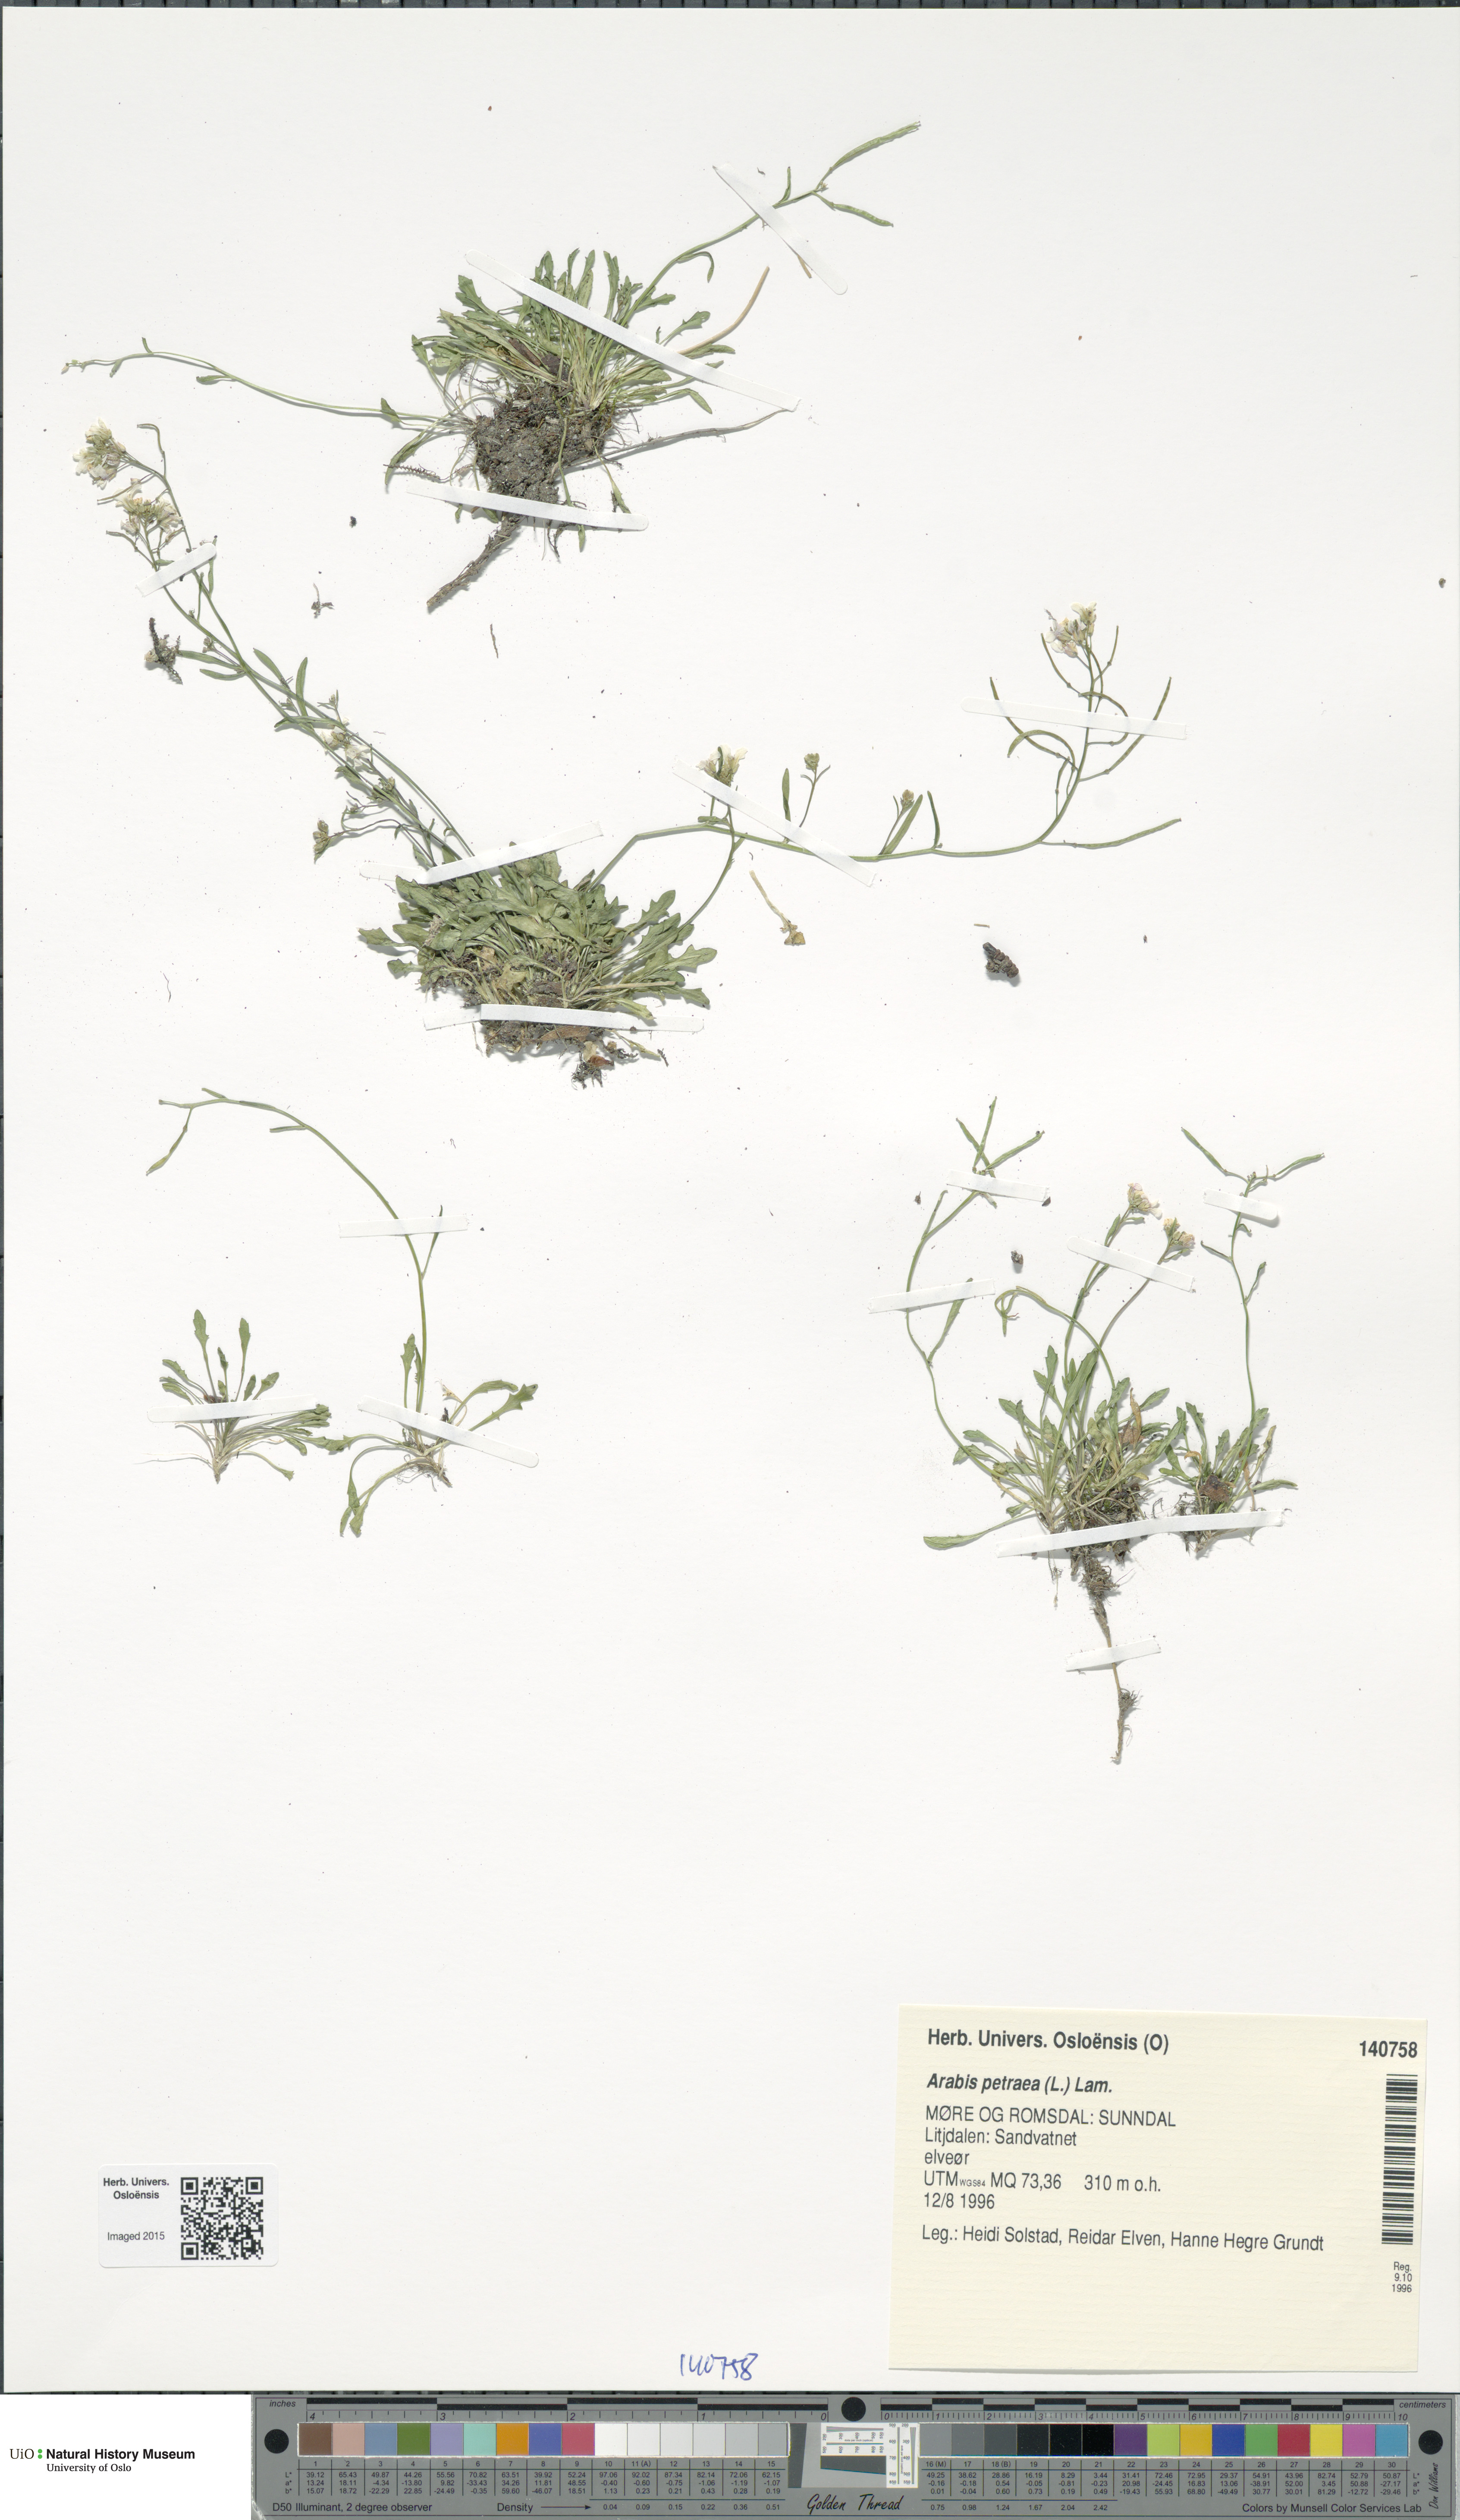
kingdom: Plantae
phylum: Tracheophyta
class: Magnoliopsida
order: Brassicales
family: Brassicaceae
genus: Arabidopsis
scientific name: Arabidopsis petraea
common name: Northern rock-cress
